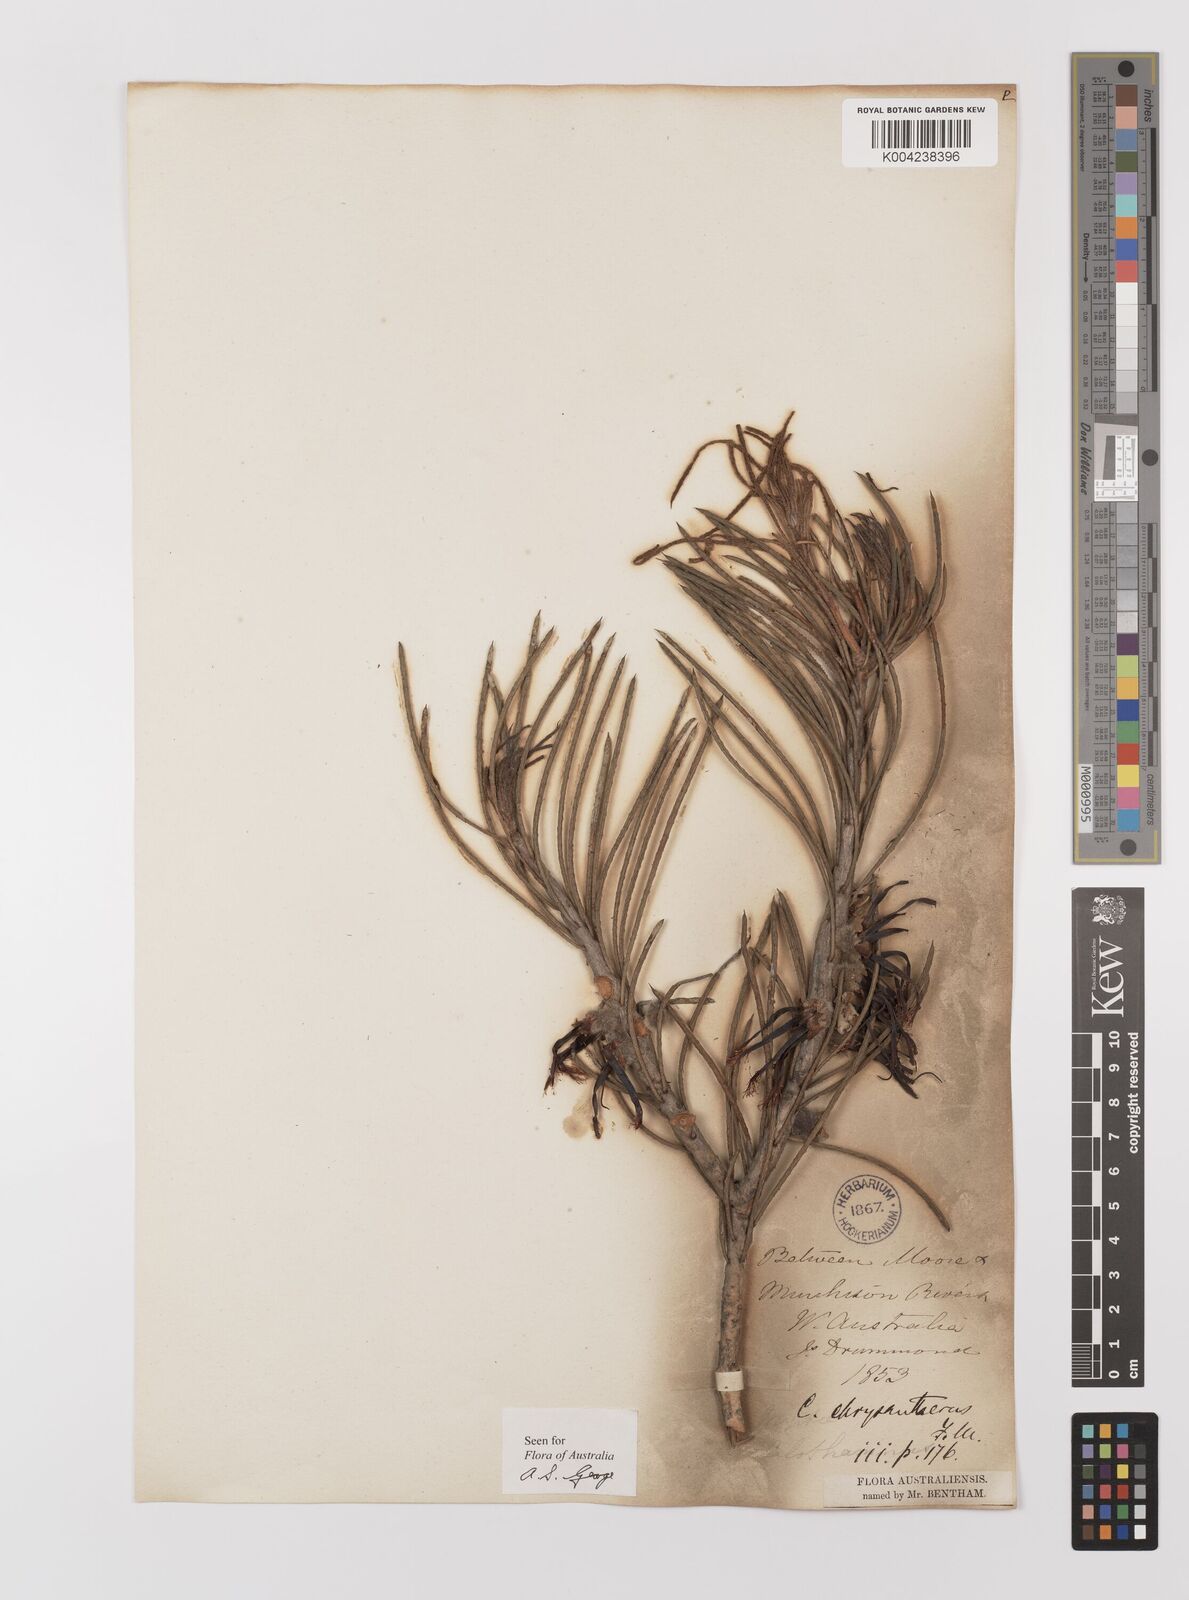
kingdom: Plantae
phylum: Tracheophyta
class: Magnoliopsida
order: Myrtales
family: Myrtaceae
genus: Melaleuca
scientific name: Melaleuca chrysantherea
